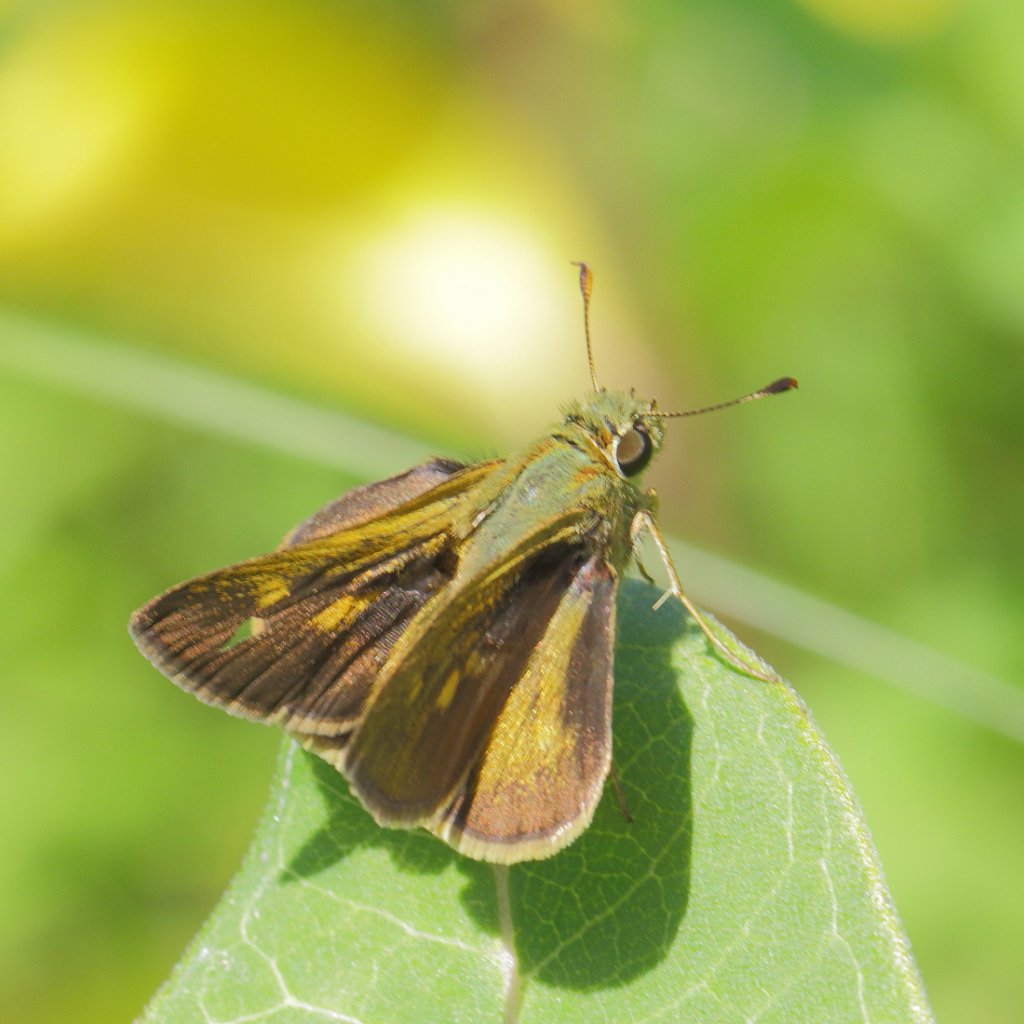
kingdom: Animalia
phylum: Arthropoda
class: Insecta
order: Lepidoptera
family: Hesperiidae
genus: Polites
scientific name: Polites egeremet
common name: Northern Broken-Dash
